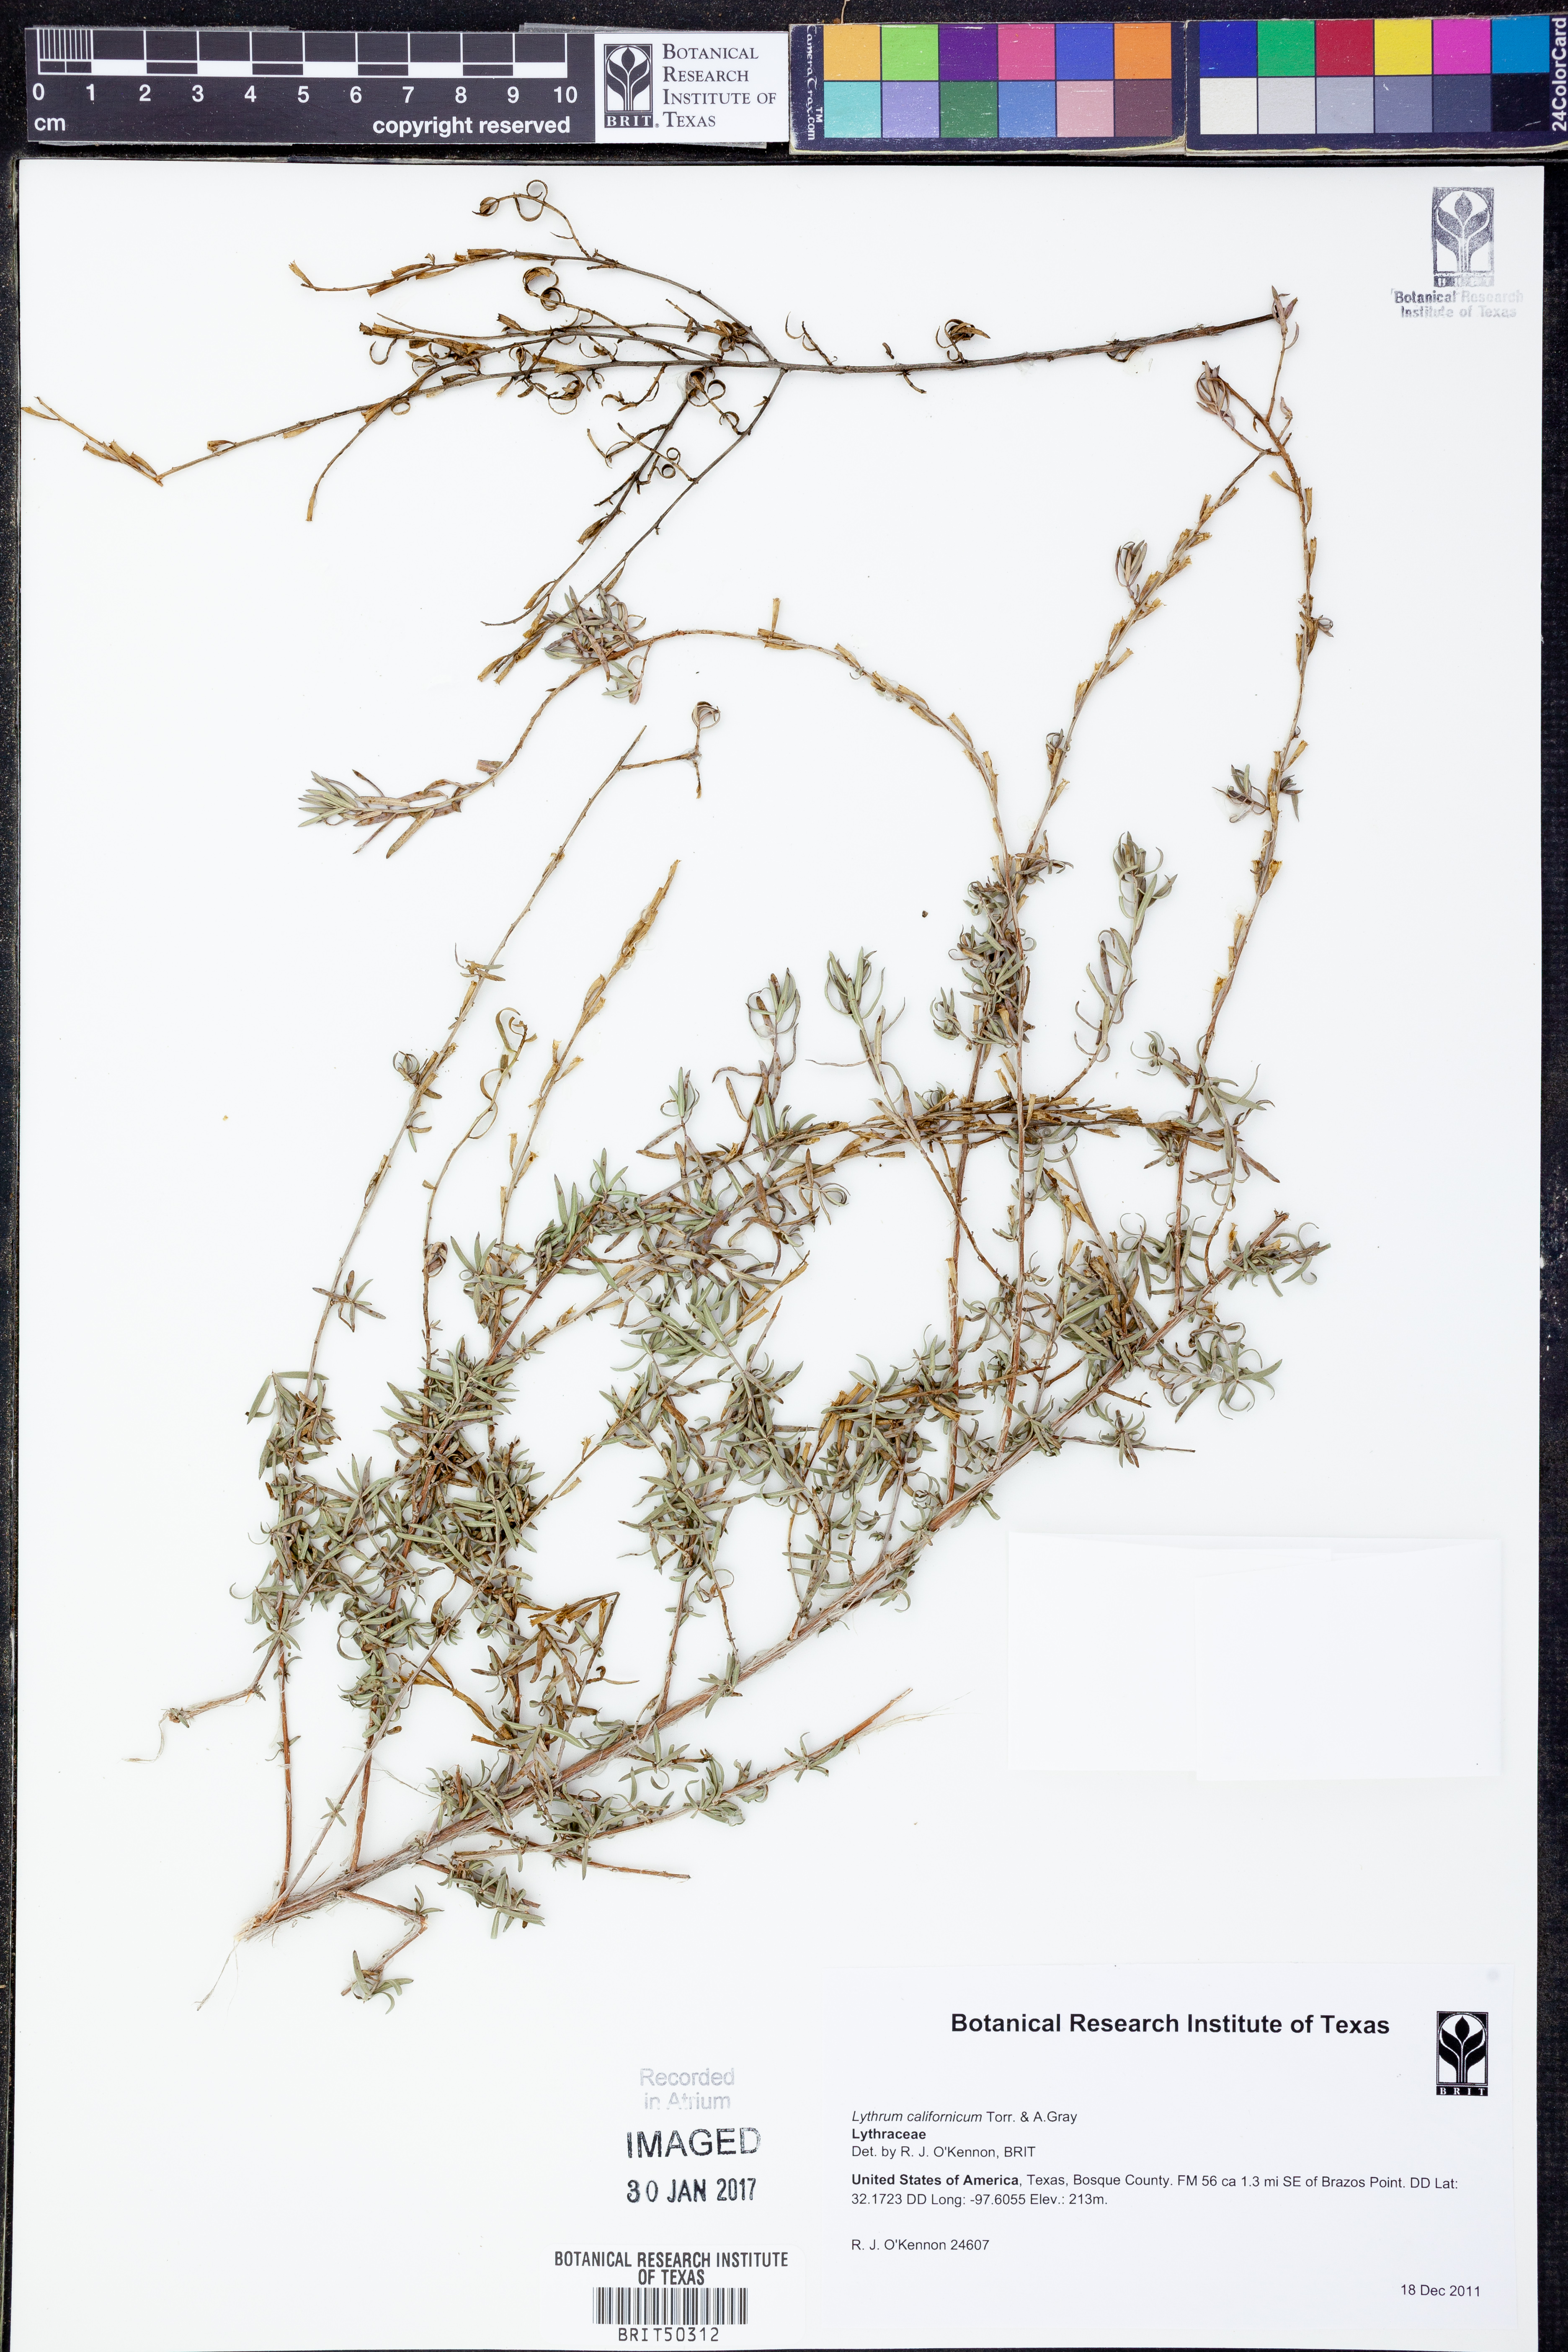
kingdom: Plantae
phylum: Tracheophyta
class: Magnoliopsida
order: Myrtales
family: Lythraceae
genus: Lythrum
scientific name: Lythrum californicum
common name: California loosestrife
